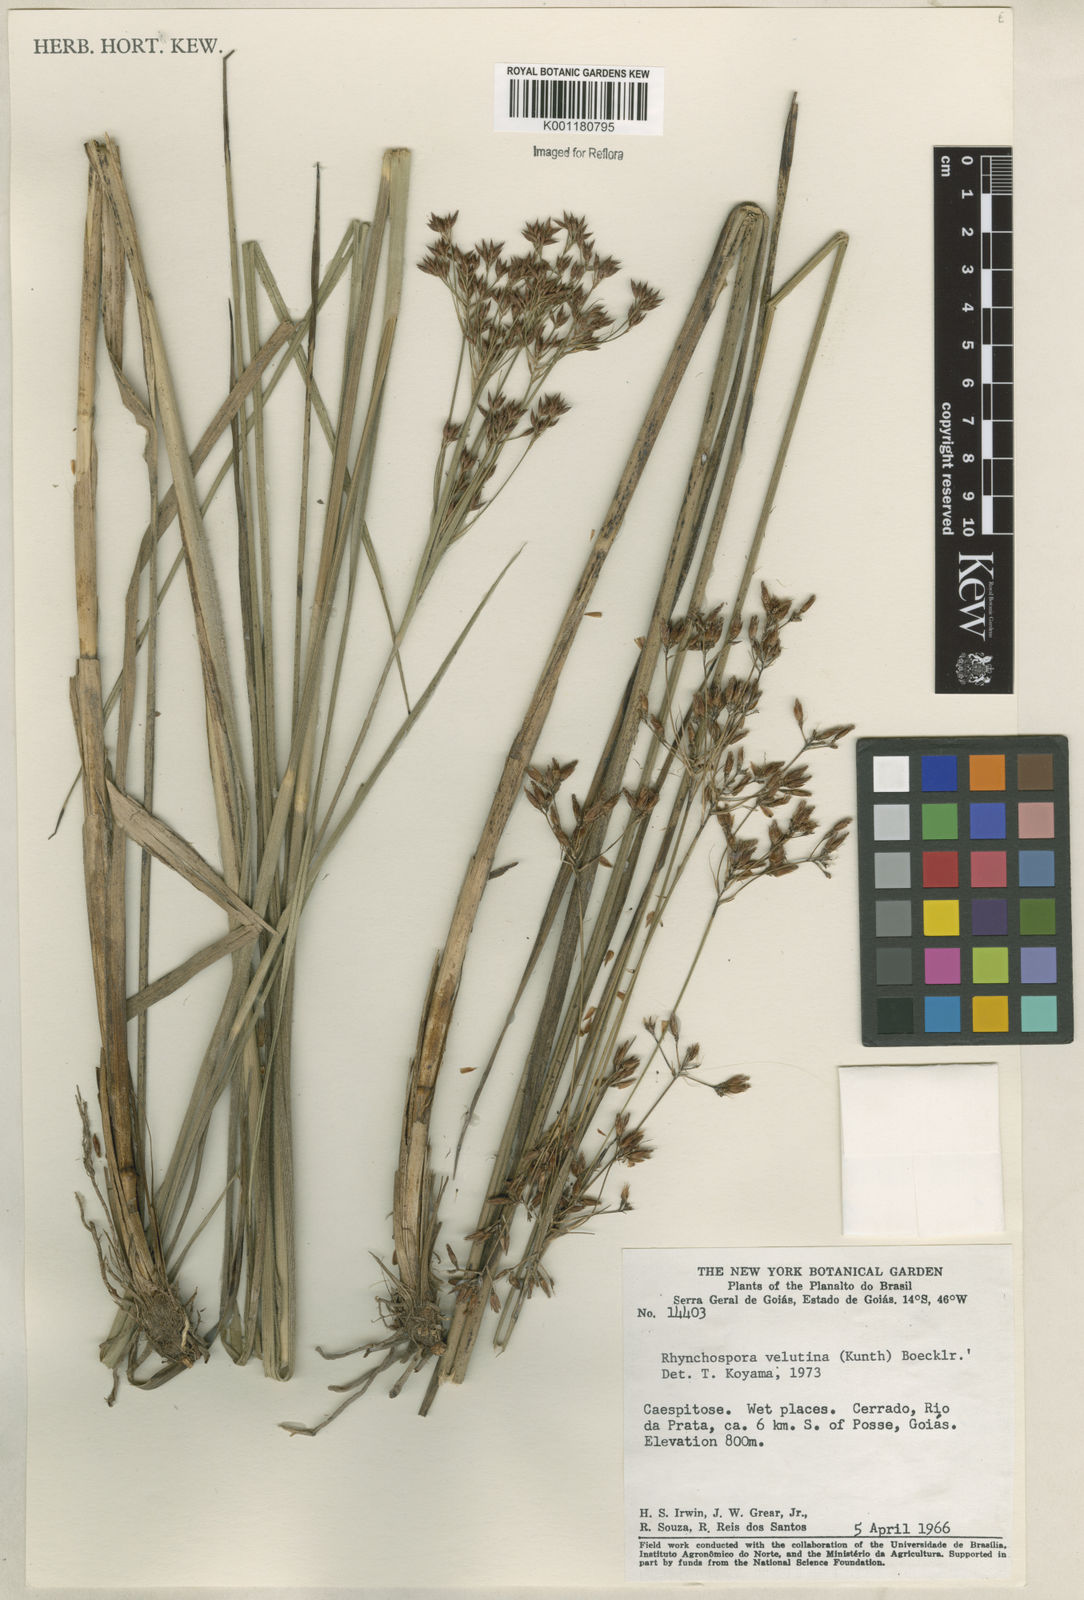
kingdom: Plantae
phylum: Tracheophyta
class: Liliopsida
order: Poales
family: Cyperaceae
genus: Rhynchospora
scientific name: Rhynchospora velutina
